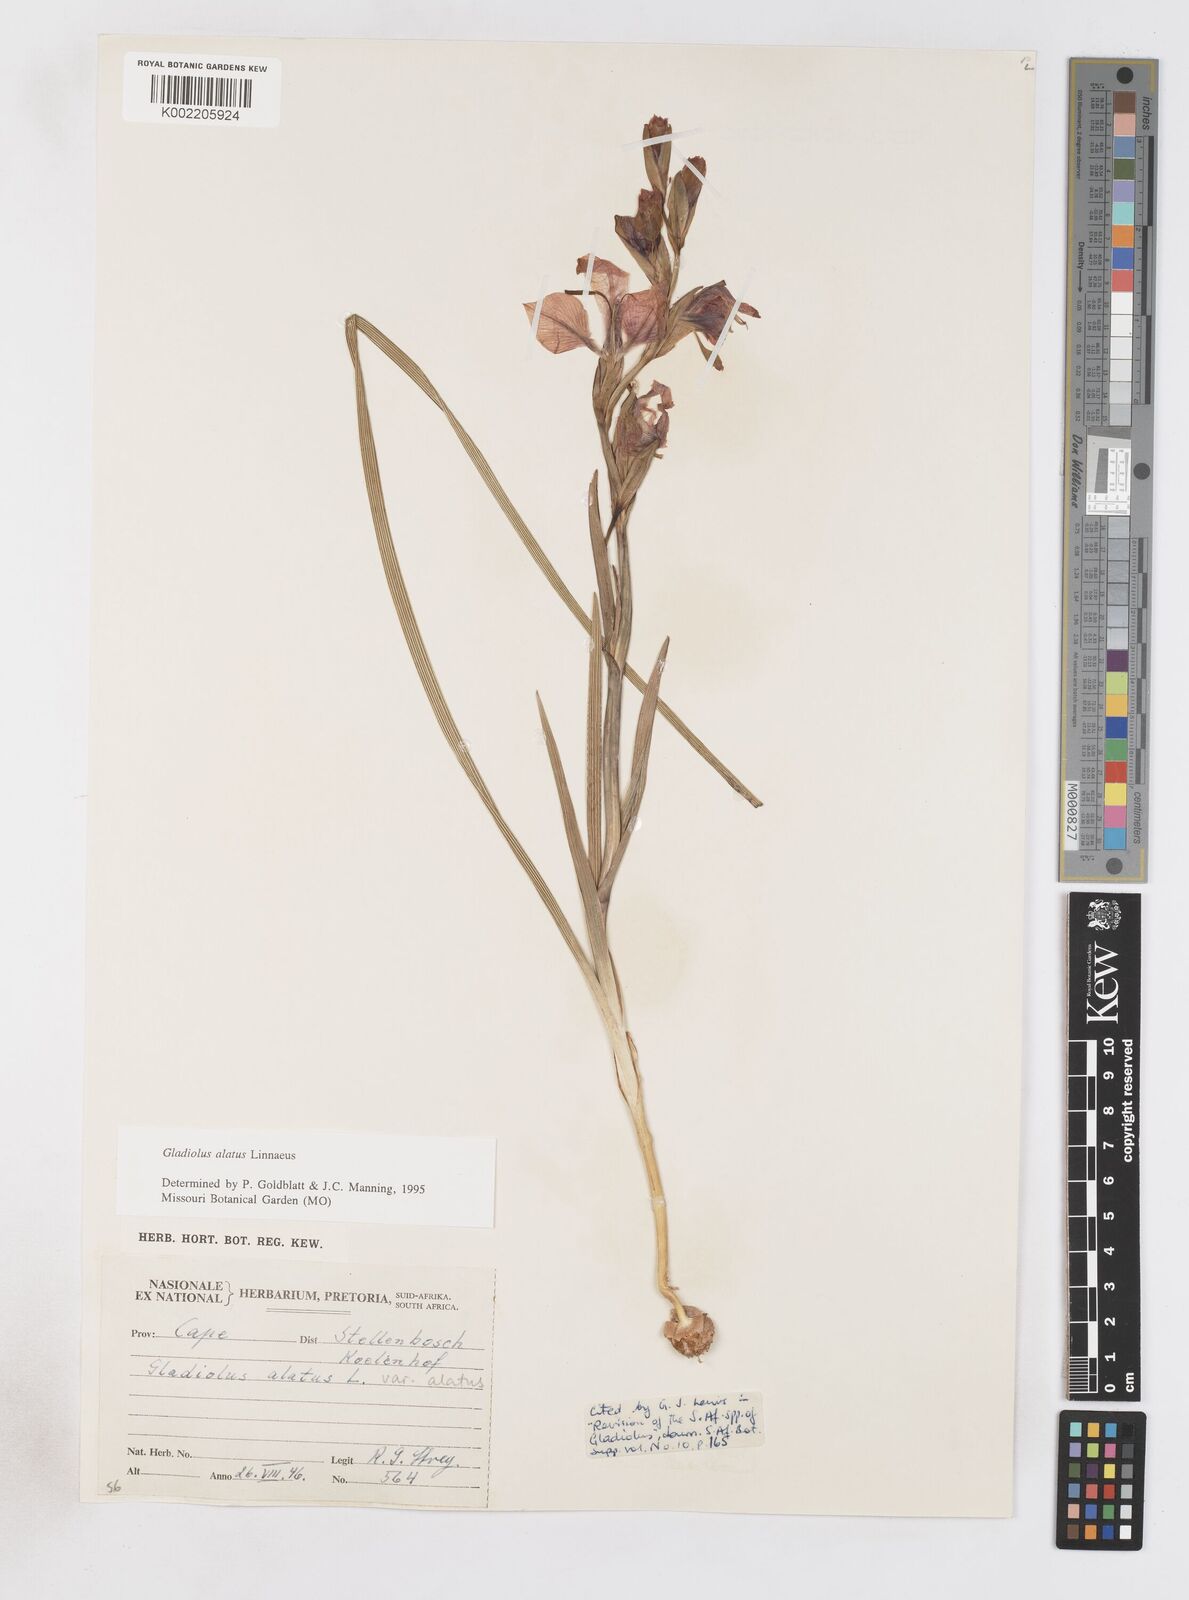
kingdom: Plantae
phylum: Tracheophyta
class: Liliopsida
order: Asparagales
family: Iridaceae
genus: Gladiolus
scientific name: Gladiolus alatus
